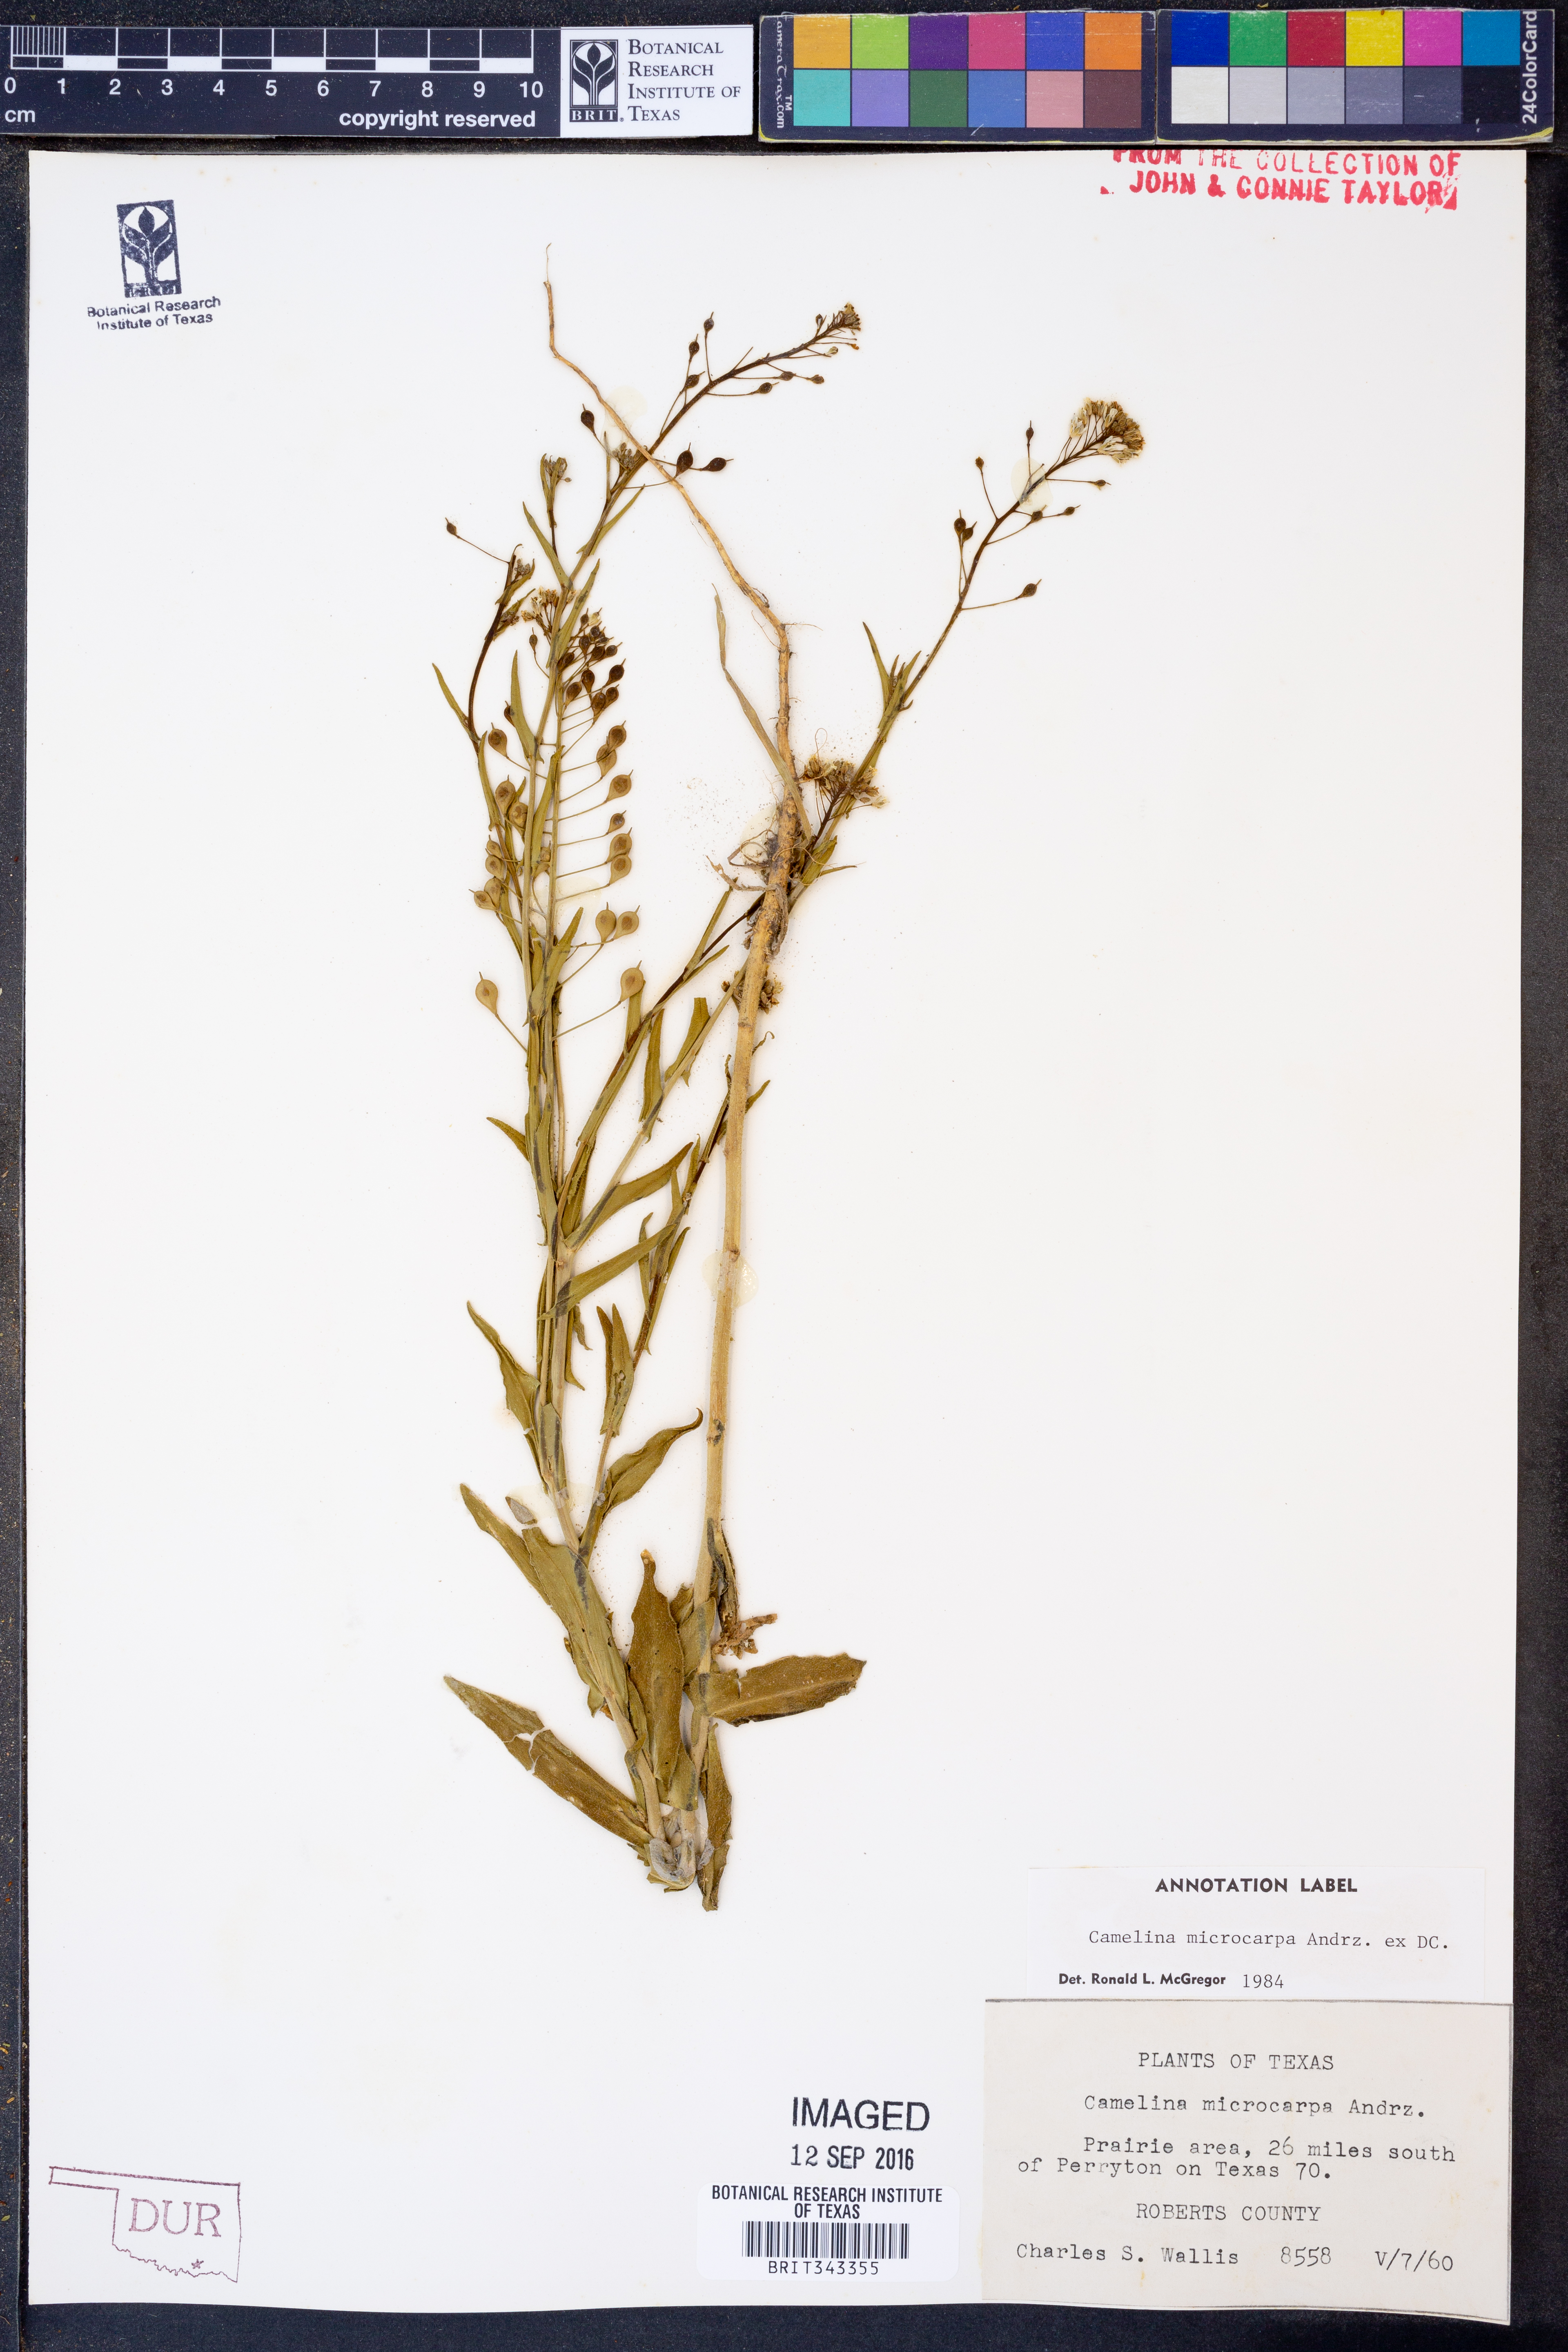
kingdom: Plantae
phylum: Tracheophyta
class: Magnoliopsida
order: Brassicales
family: Brassicaceae
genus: Camelina
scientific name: Camelina microcarpa
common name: Lesser gold-of-pleasure
